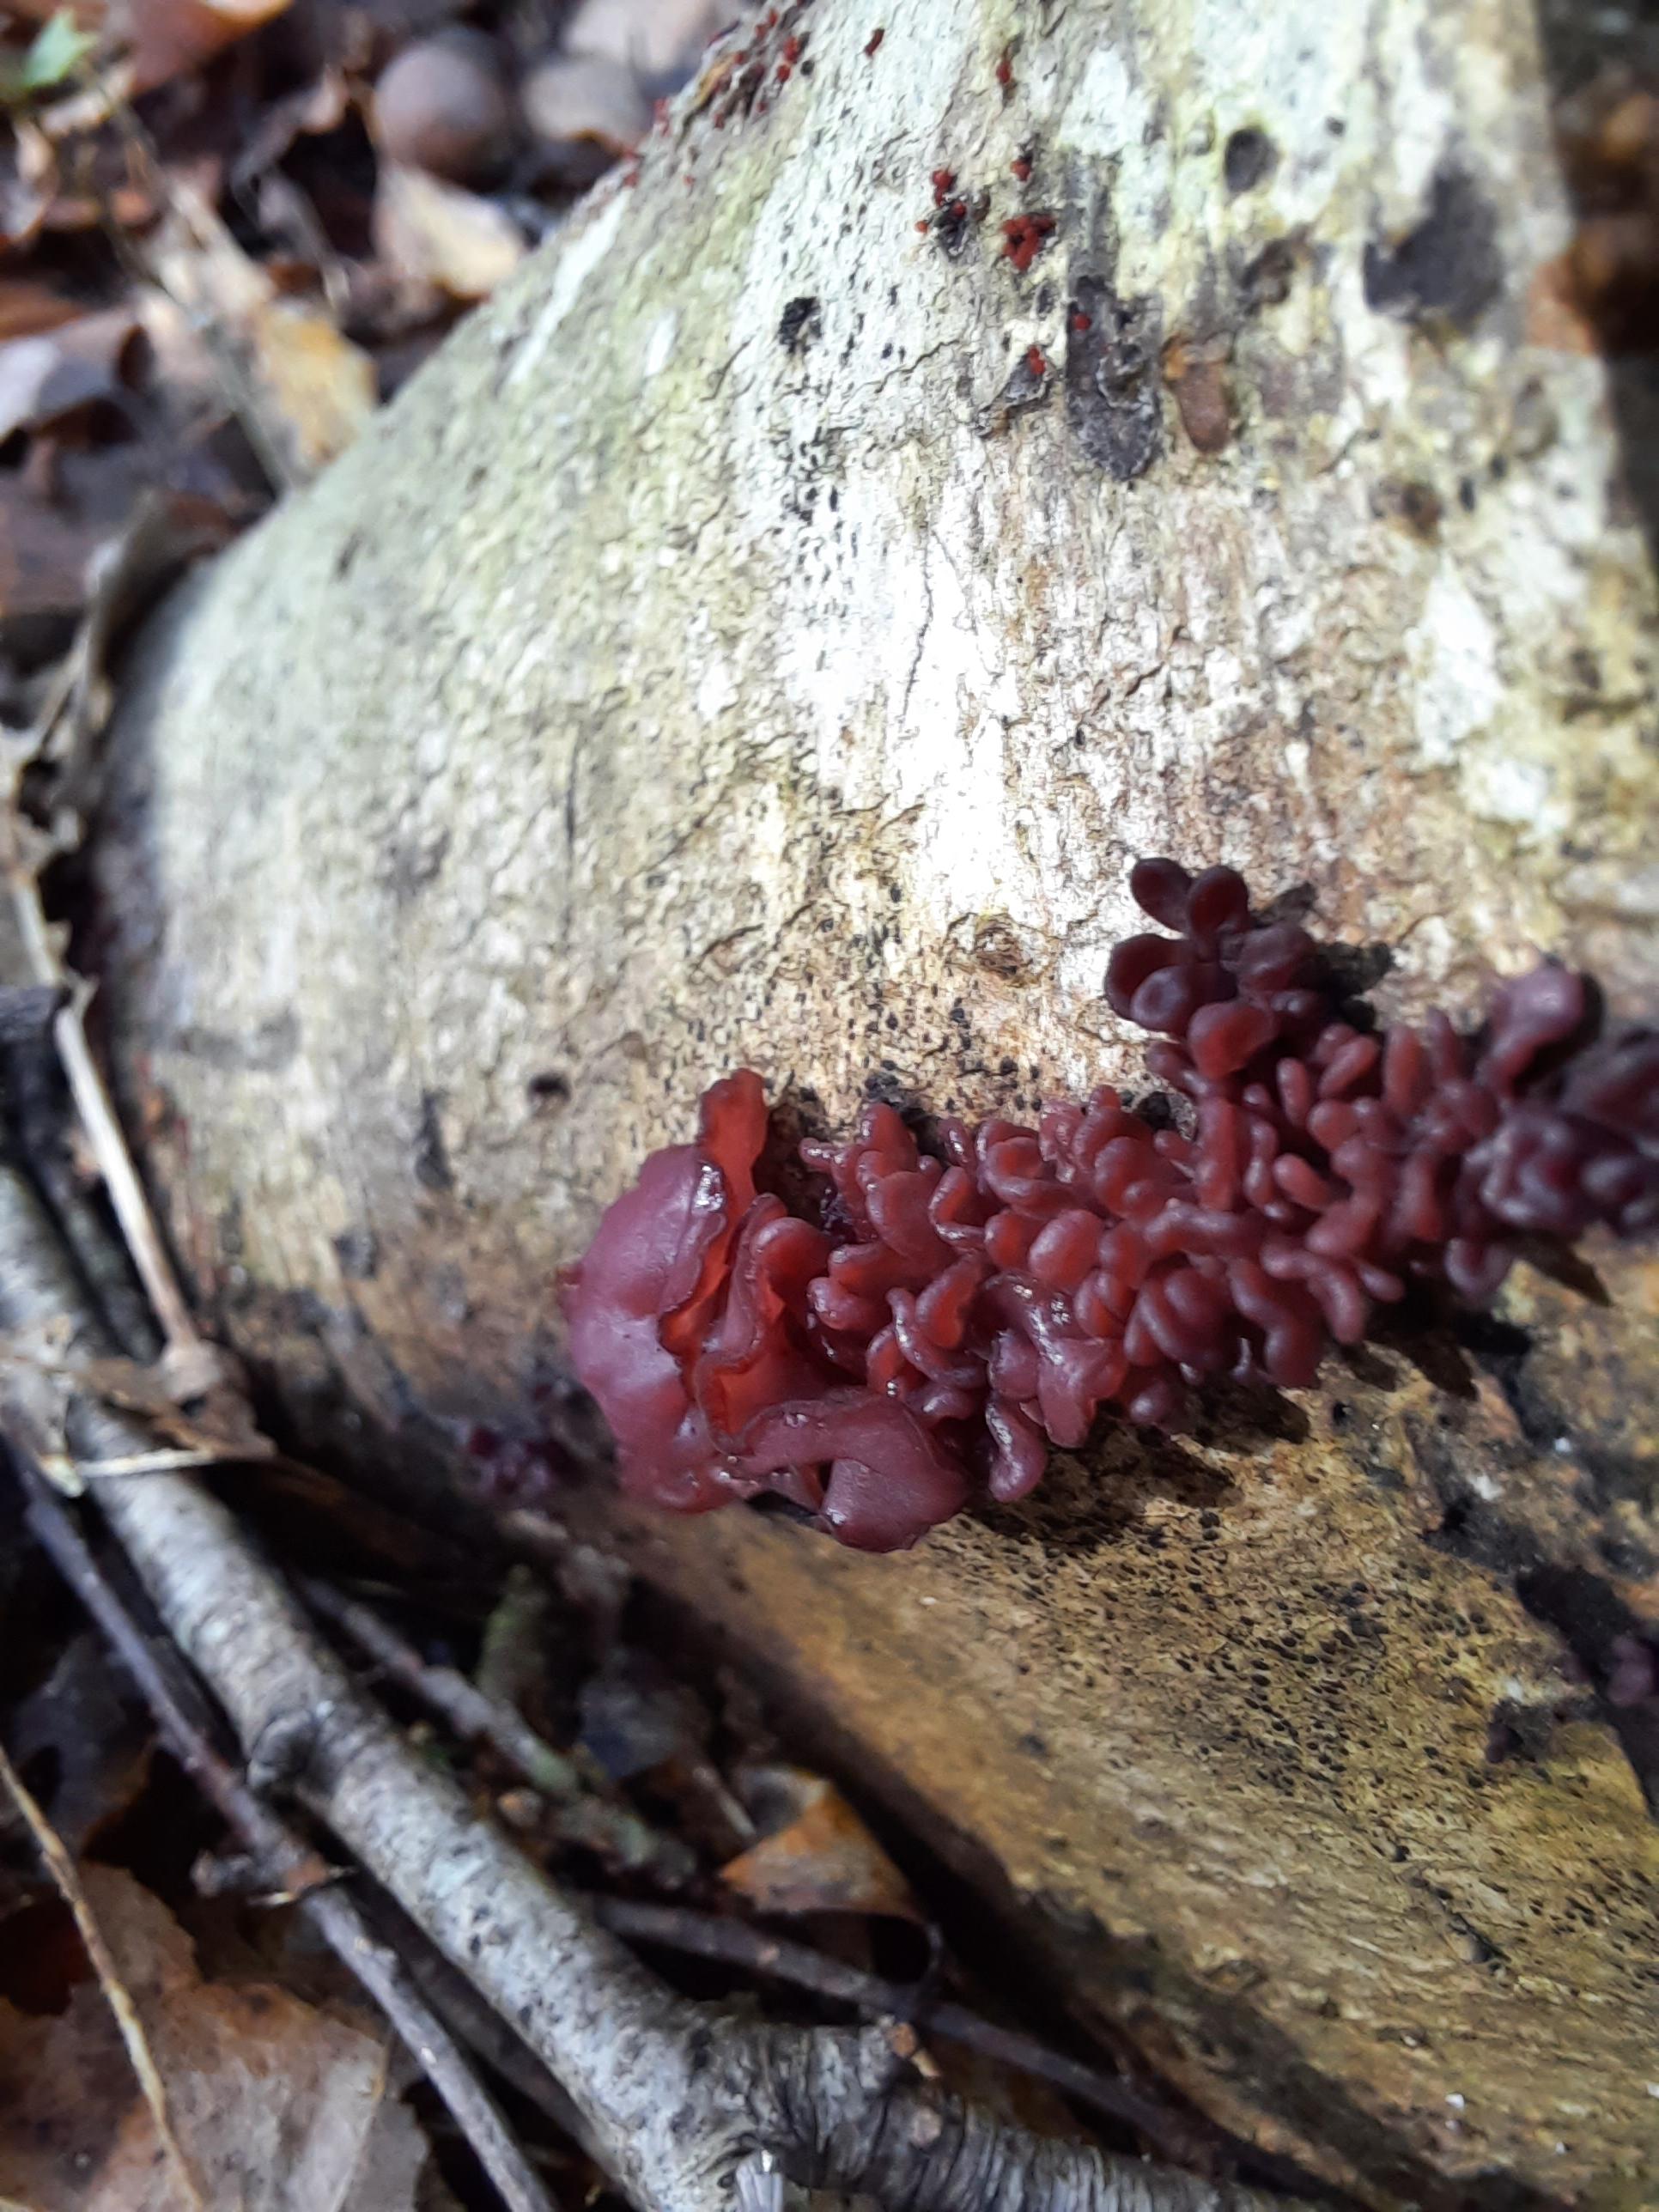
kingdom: Fungi
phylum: Ascomycota
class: Leotiomycetes
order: Helotiales
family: Gelatinodiscaceae
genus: Ascocoryne
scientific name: Ascocoryne sarcoides
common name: rødlilla sejskive
